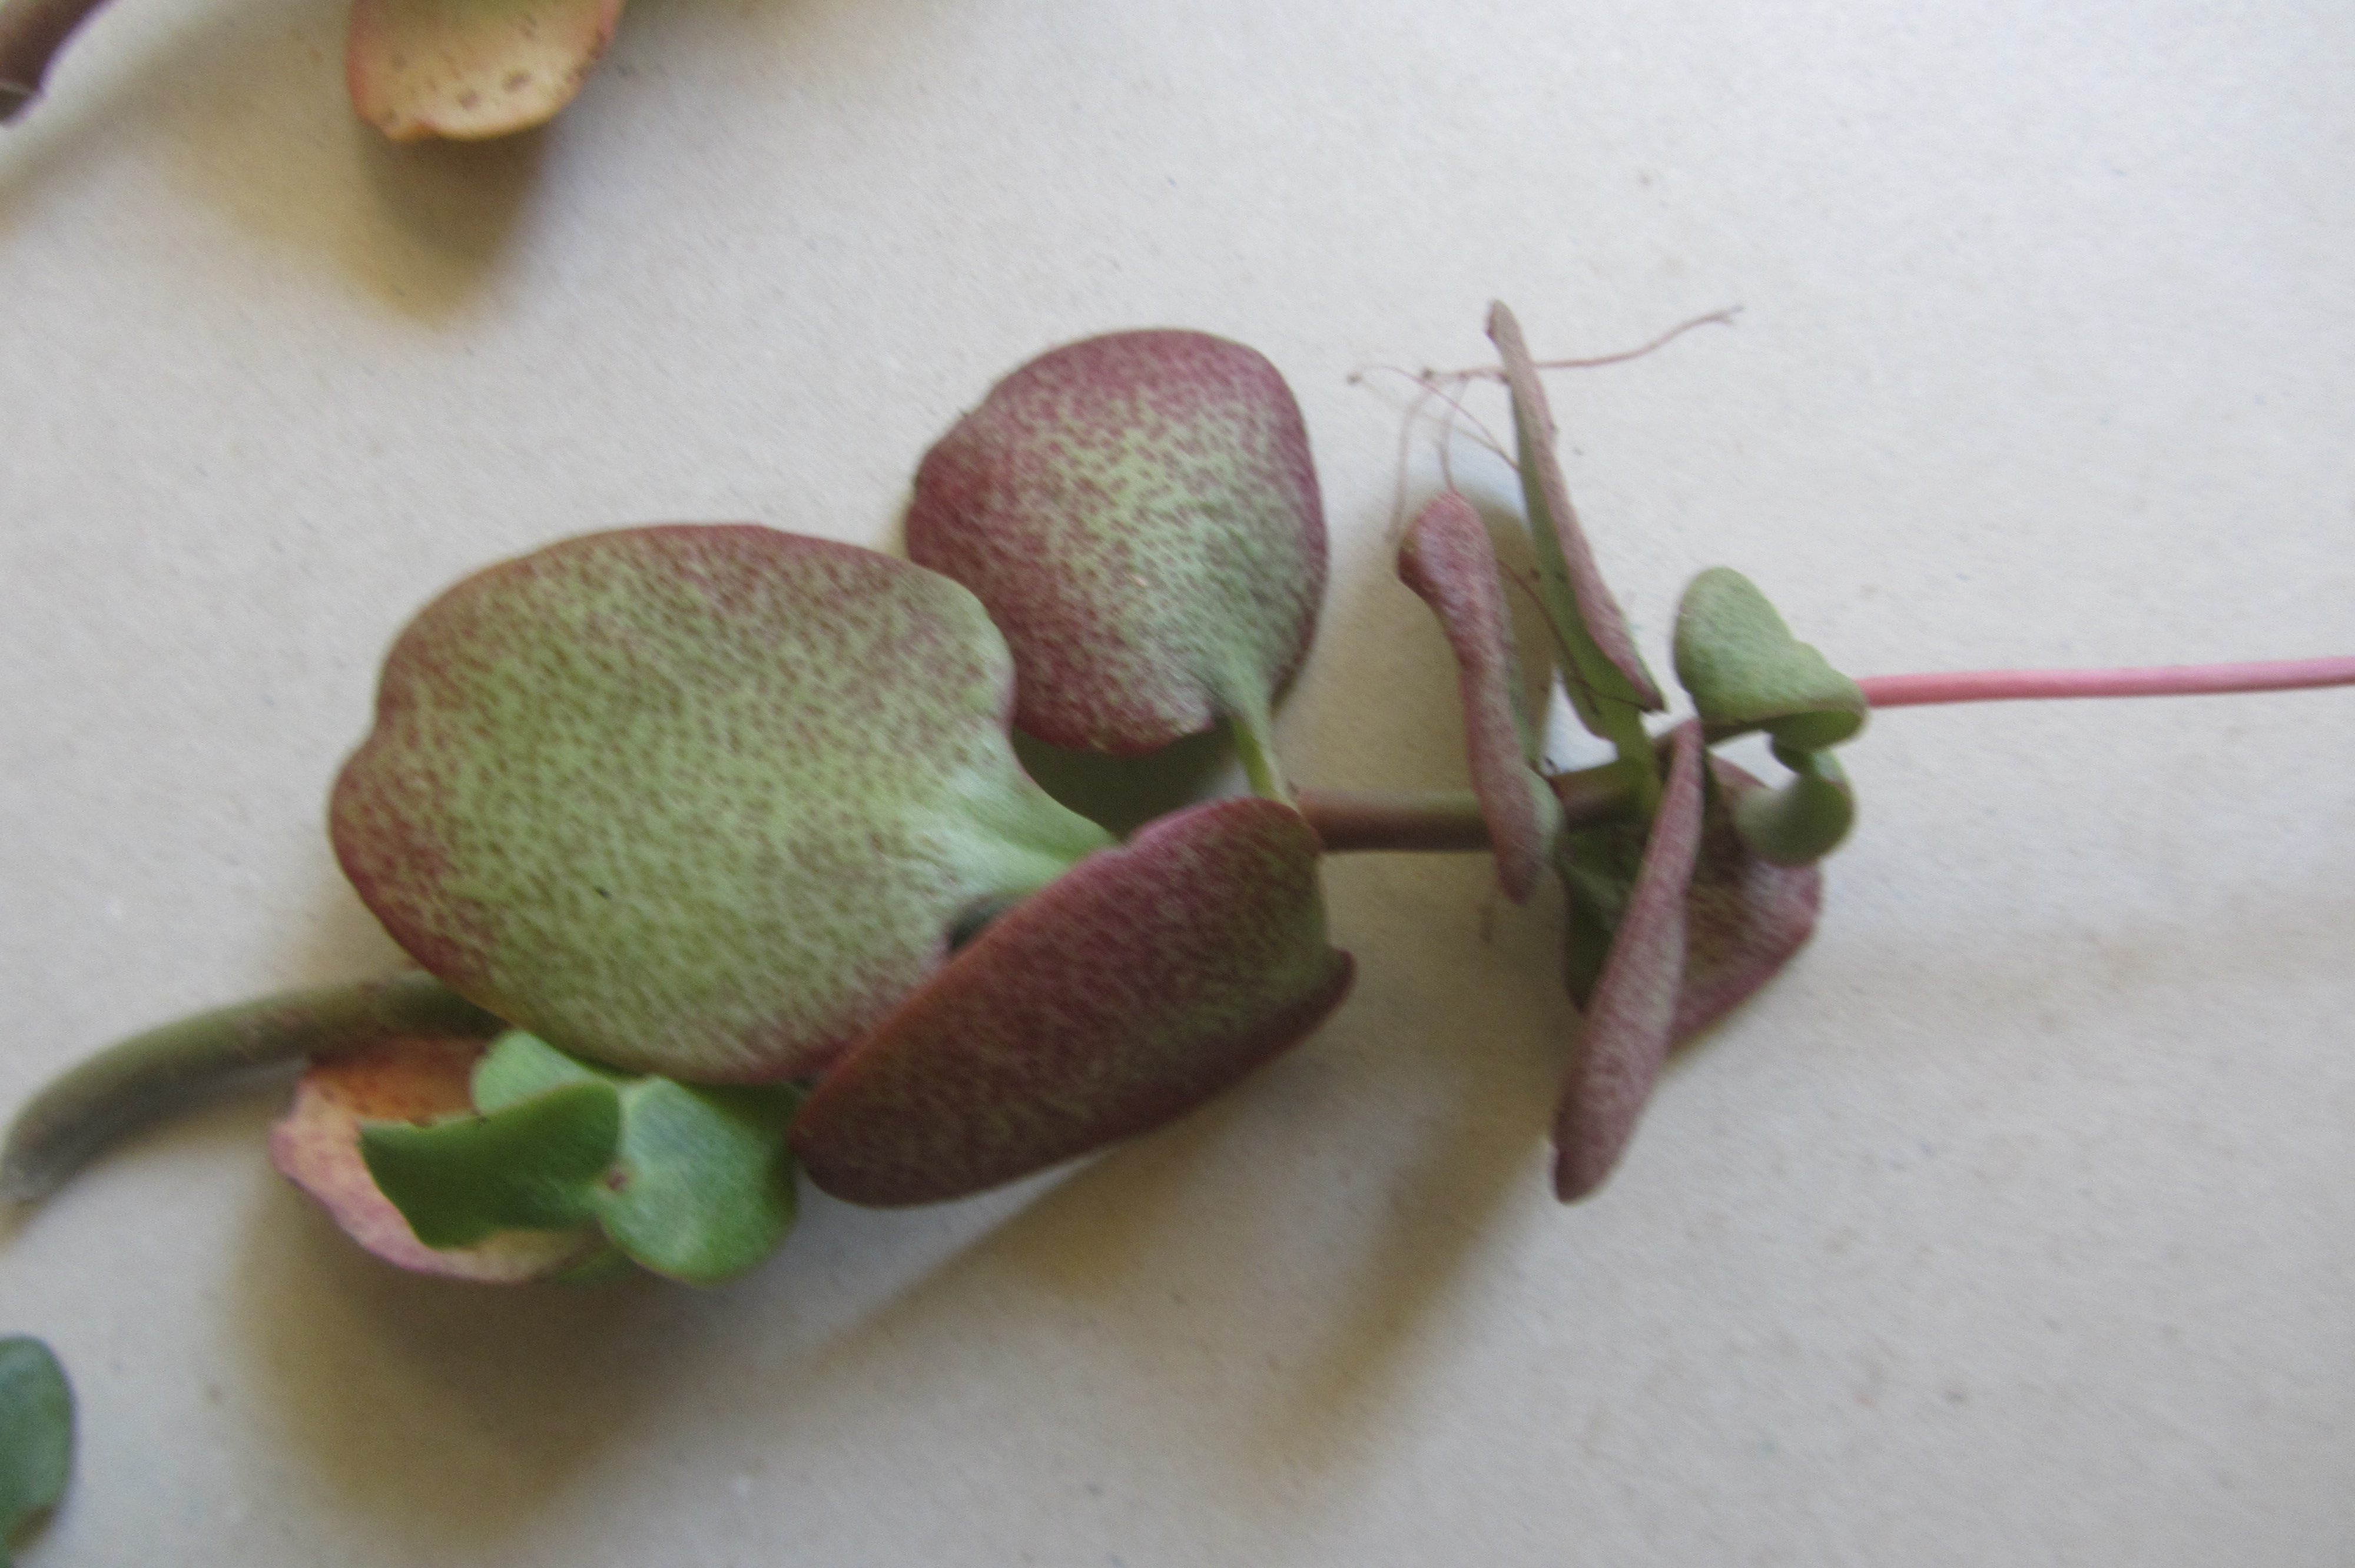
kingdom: Plantae
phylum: Tracheophyta
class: Magnoliopsida
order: Saxifragales
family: Crassulaceae
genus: Crassula
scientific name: Crassula multicava
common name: Cape province pygmyweed
